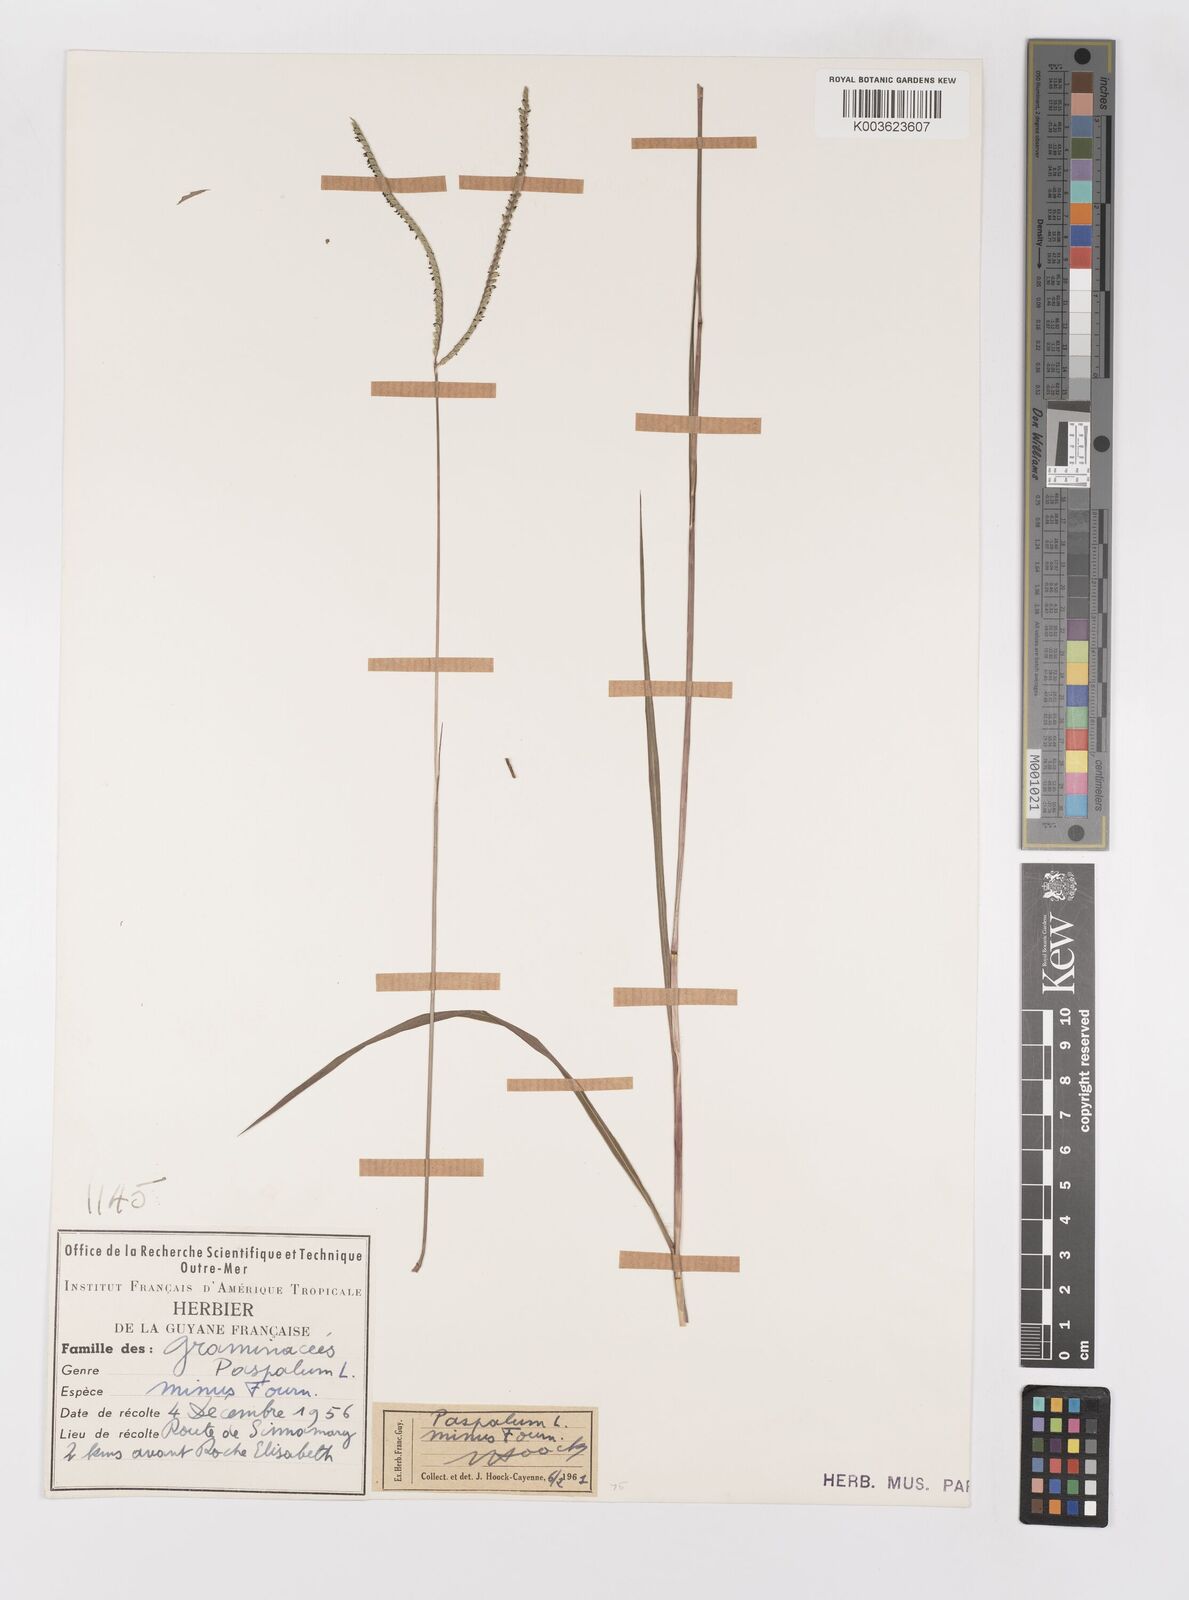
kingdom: Plantae
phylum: Tracheophyta
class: Liliopsida
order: Poales
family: Poaceae
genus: Paspalum
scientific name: Paspalum minus
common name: Matted paspalum
